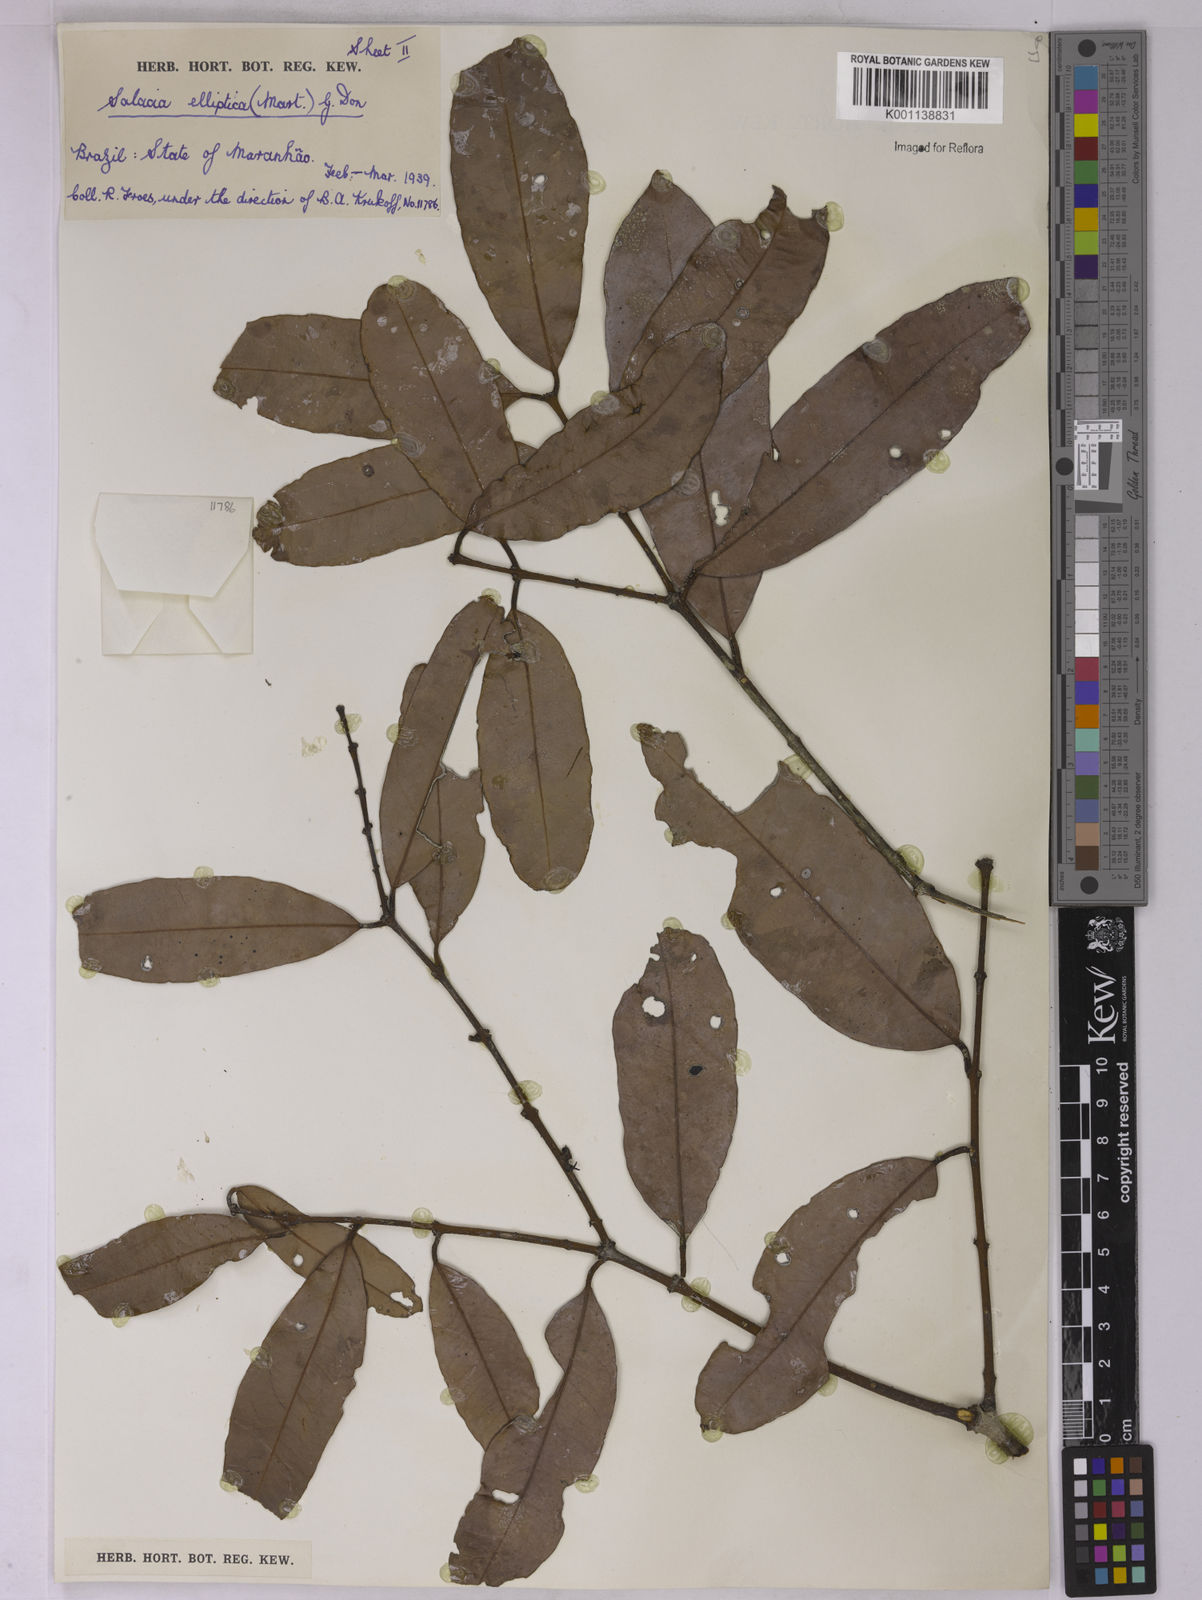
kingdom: Plantae
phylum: Tracheophyta
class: Magnoliopsida
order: Celastrales
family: Celastraceae
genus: Salacia
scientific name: Salacia elliptica
